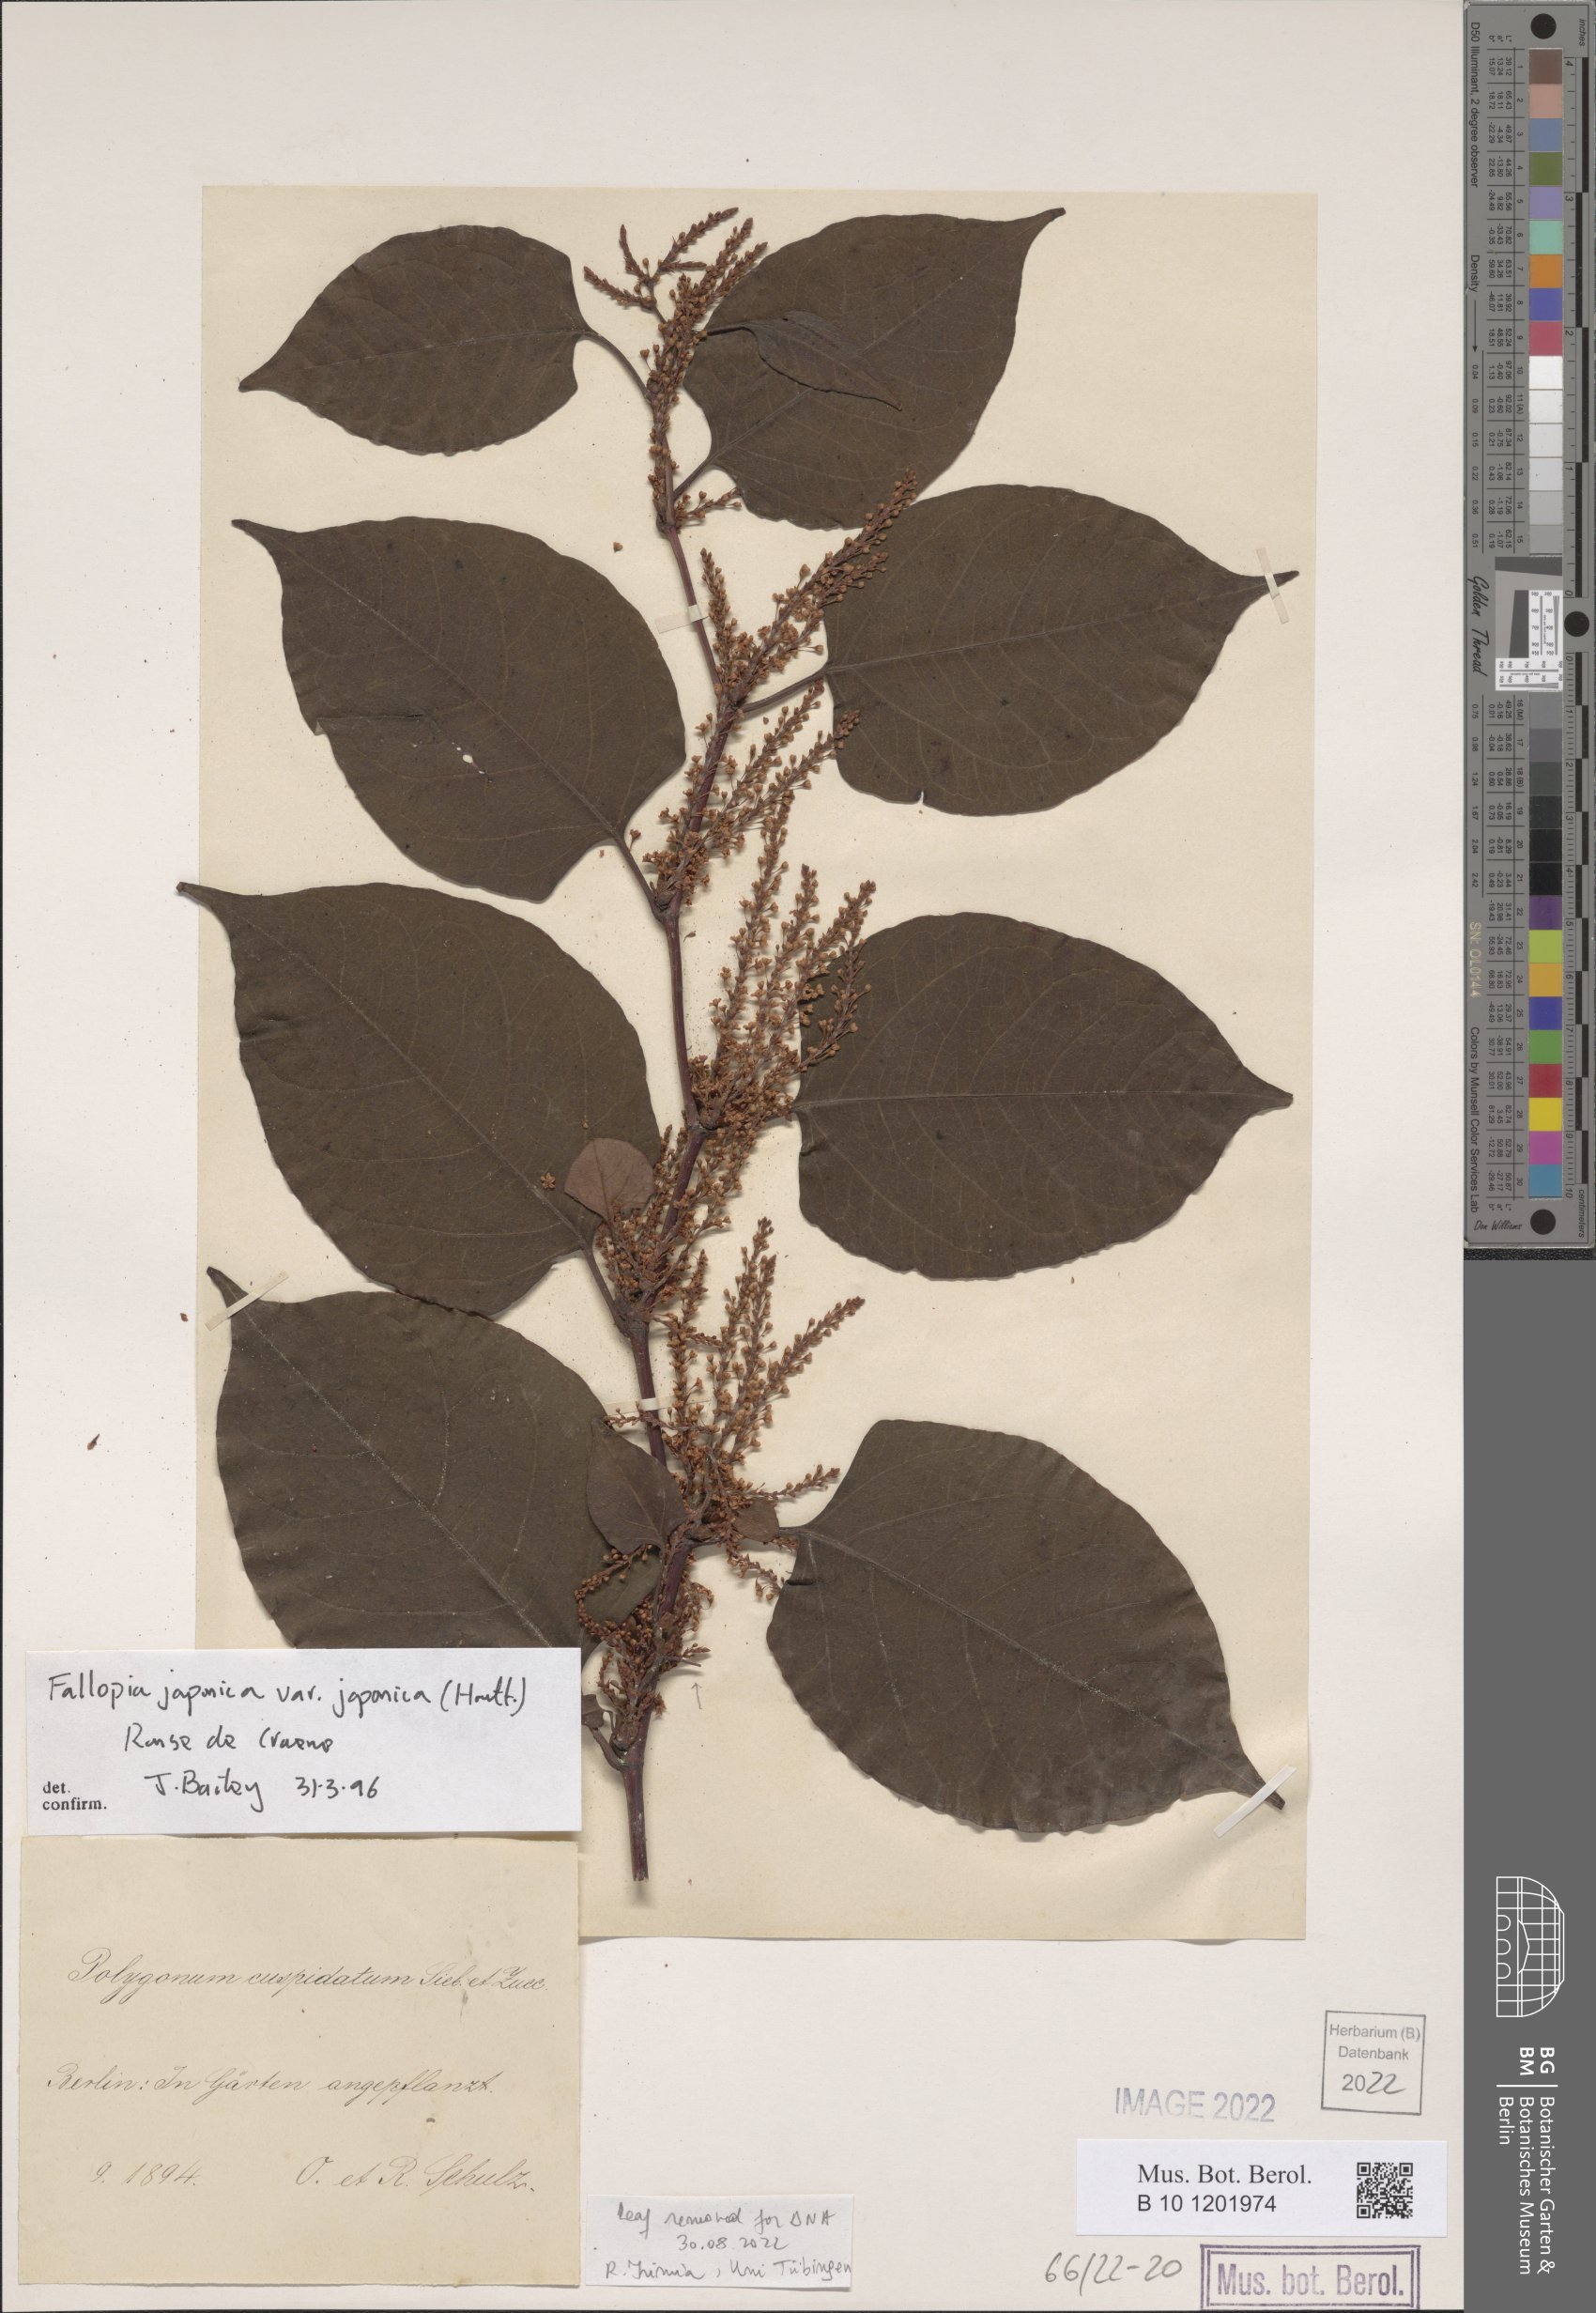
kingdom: Plantae
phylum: Tracheophyta
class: Magnoliopsida
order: Caryophyllales
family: Polygonaceae
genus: Reynoutria
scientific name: Reynoutria japonica
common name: Japanese knotweed
